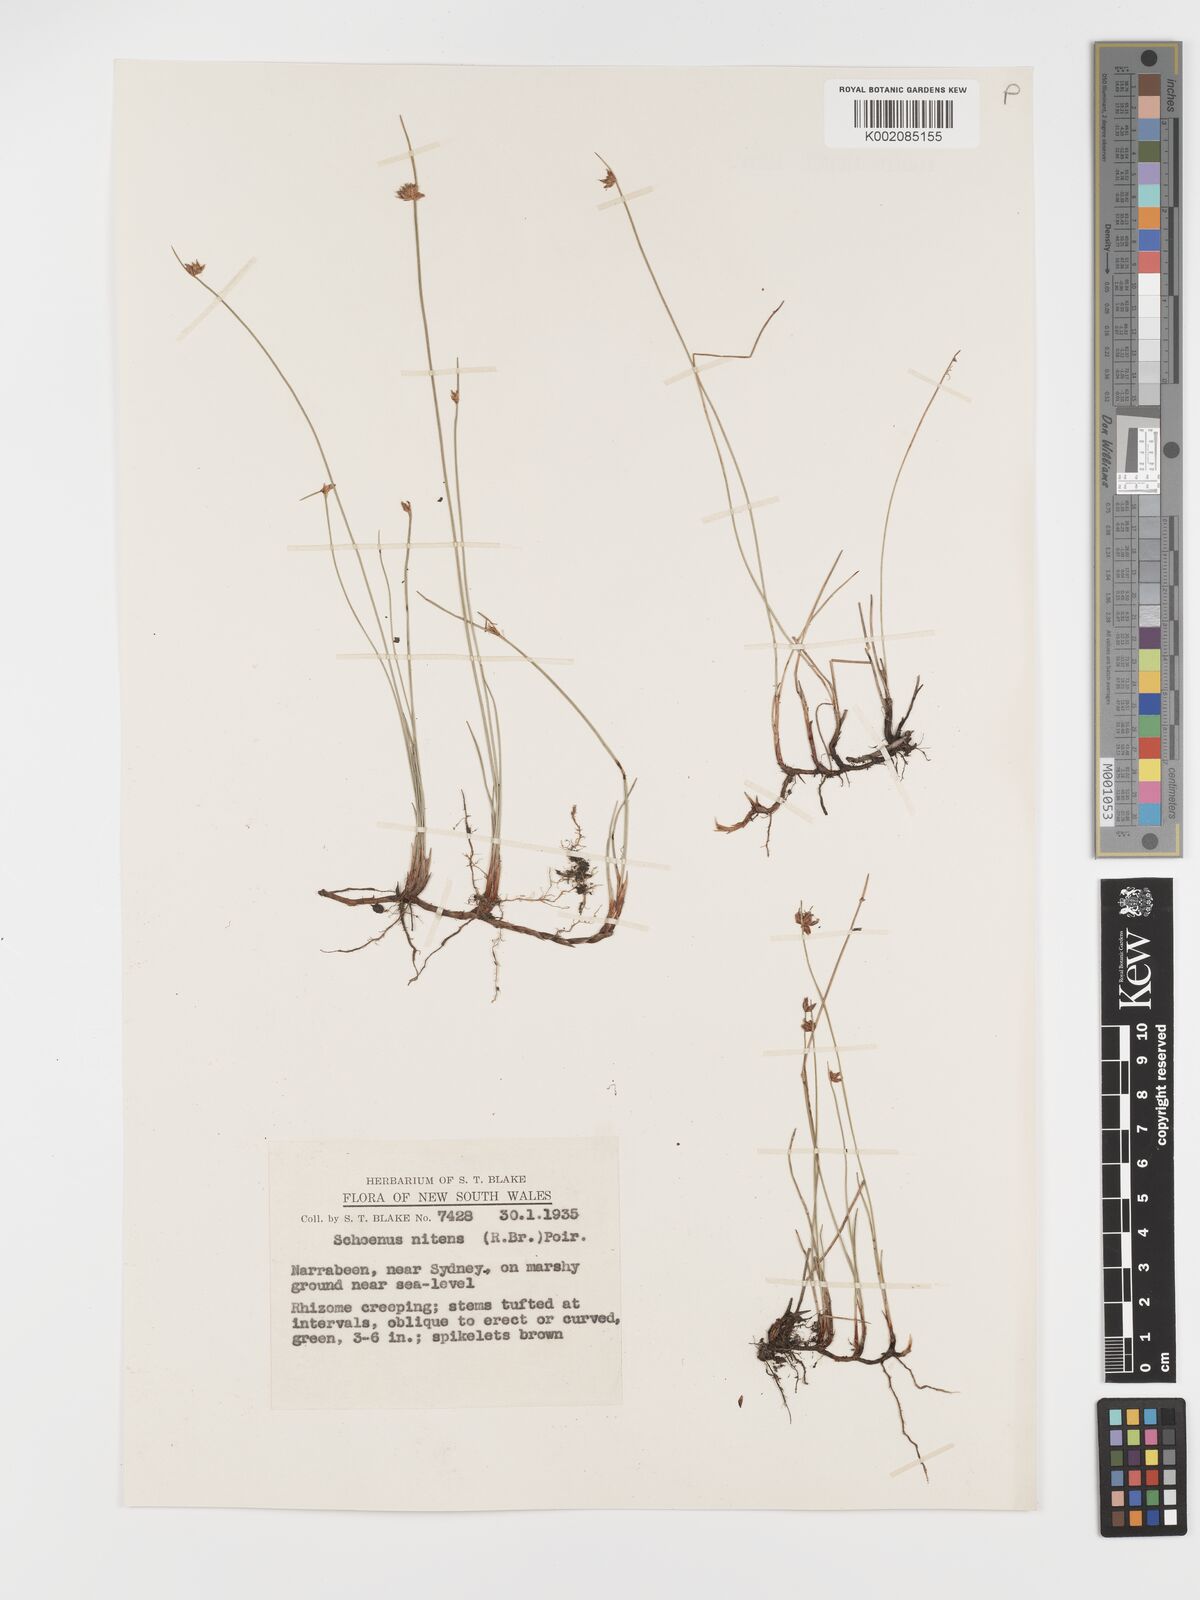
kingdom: Plantae
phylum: Tracheophyta
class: Liliopsida
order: Poales
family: Cyperaceae
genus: Schoenus
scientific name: Schoenus nitens
